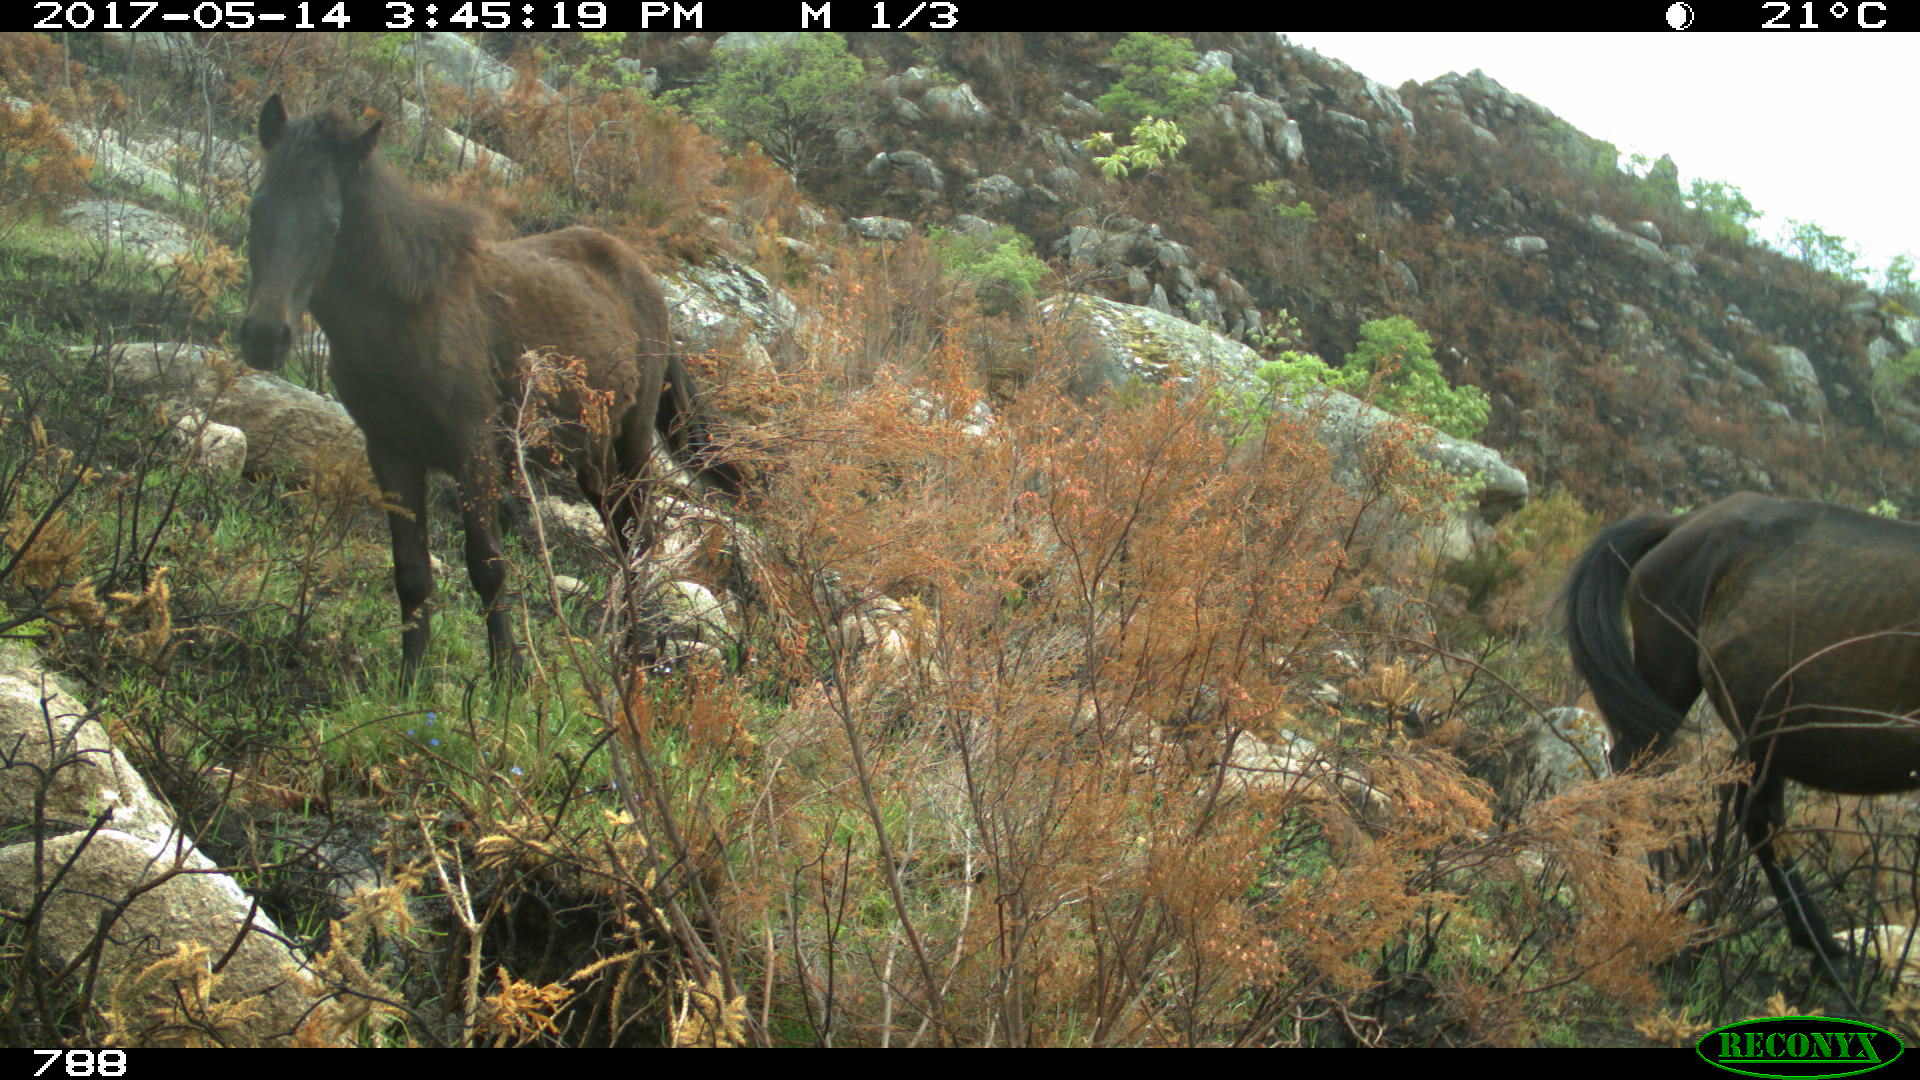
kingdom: Animalia
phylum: Chordata
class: Mammalia
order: Perissodactyla
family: Equidae
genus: Equus
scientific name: Equus caballus
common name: Horse
